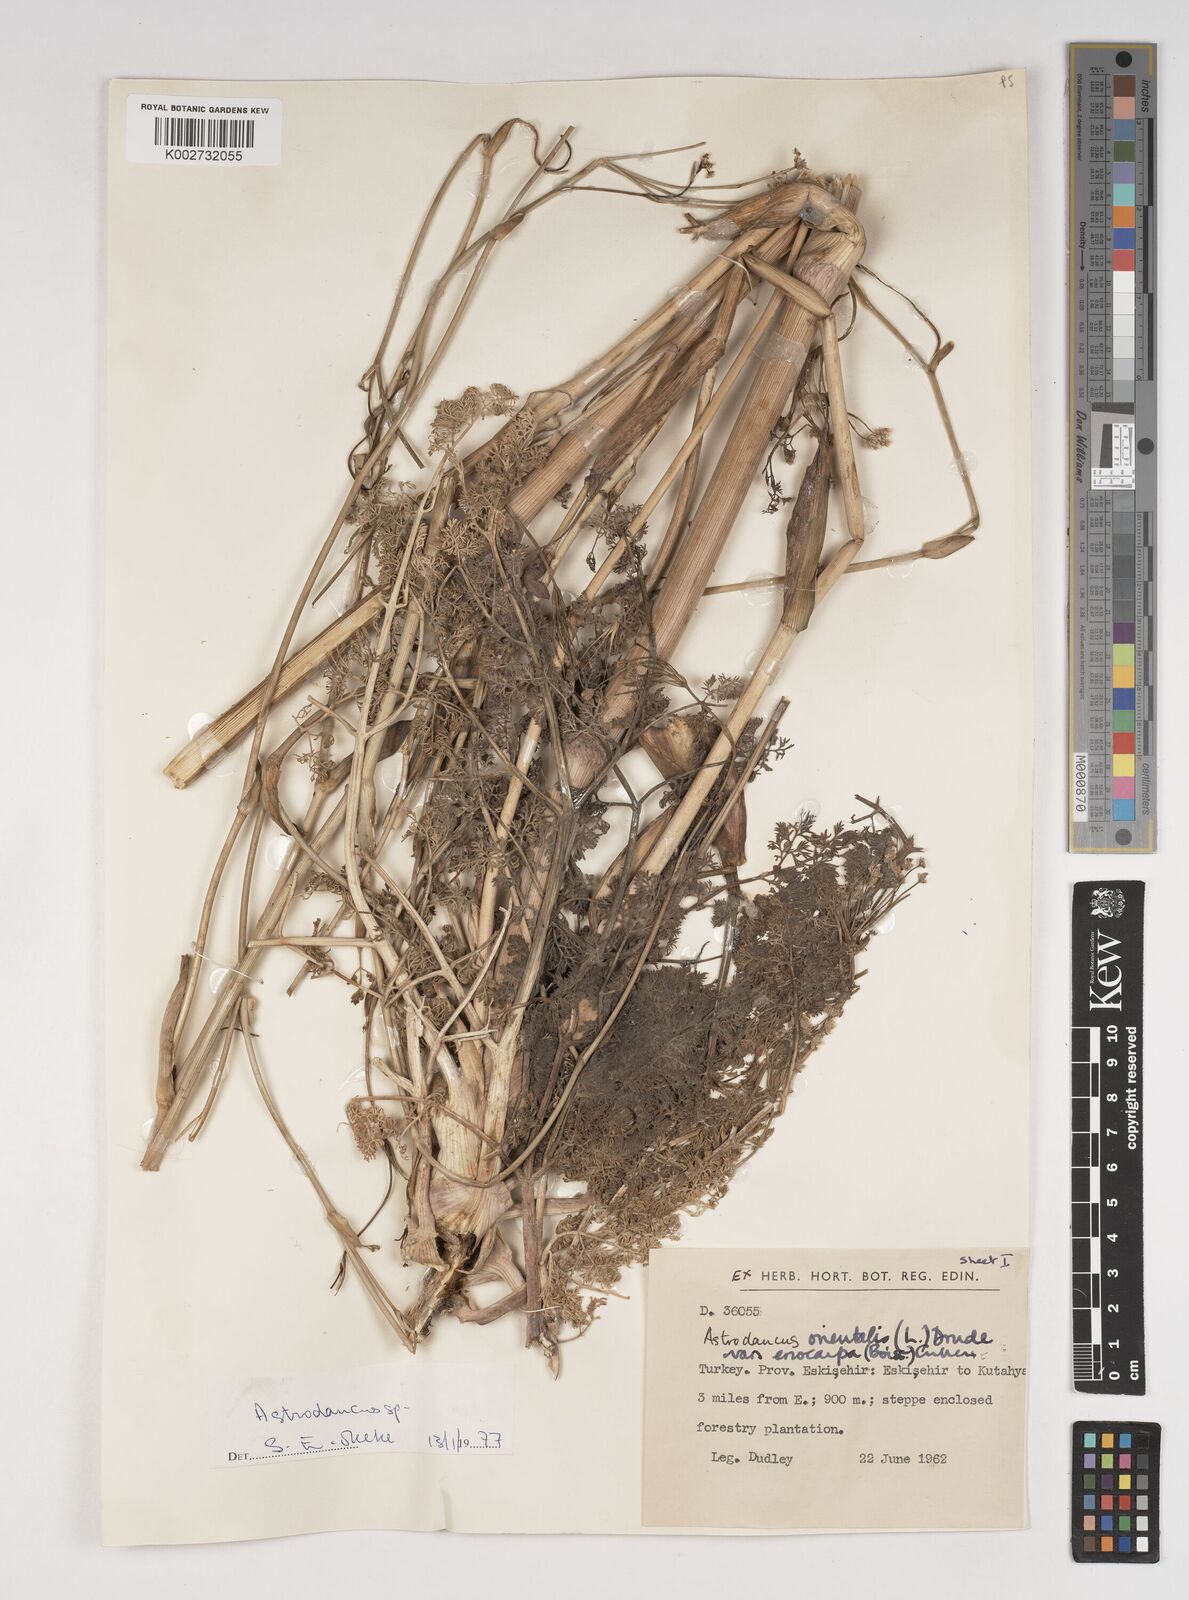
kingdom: Plantae
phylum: Tracheophyta
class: Magnoliopsida
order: Apiales
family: Apiaceae
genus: Astrodaucus
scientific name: Astrodaucus orientalis
